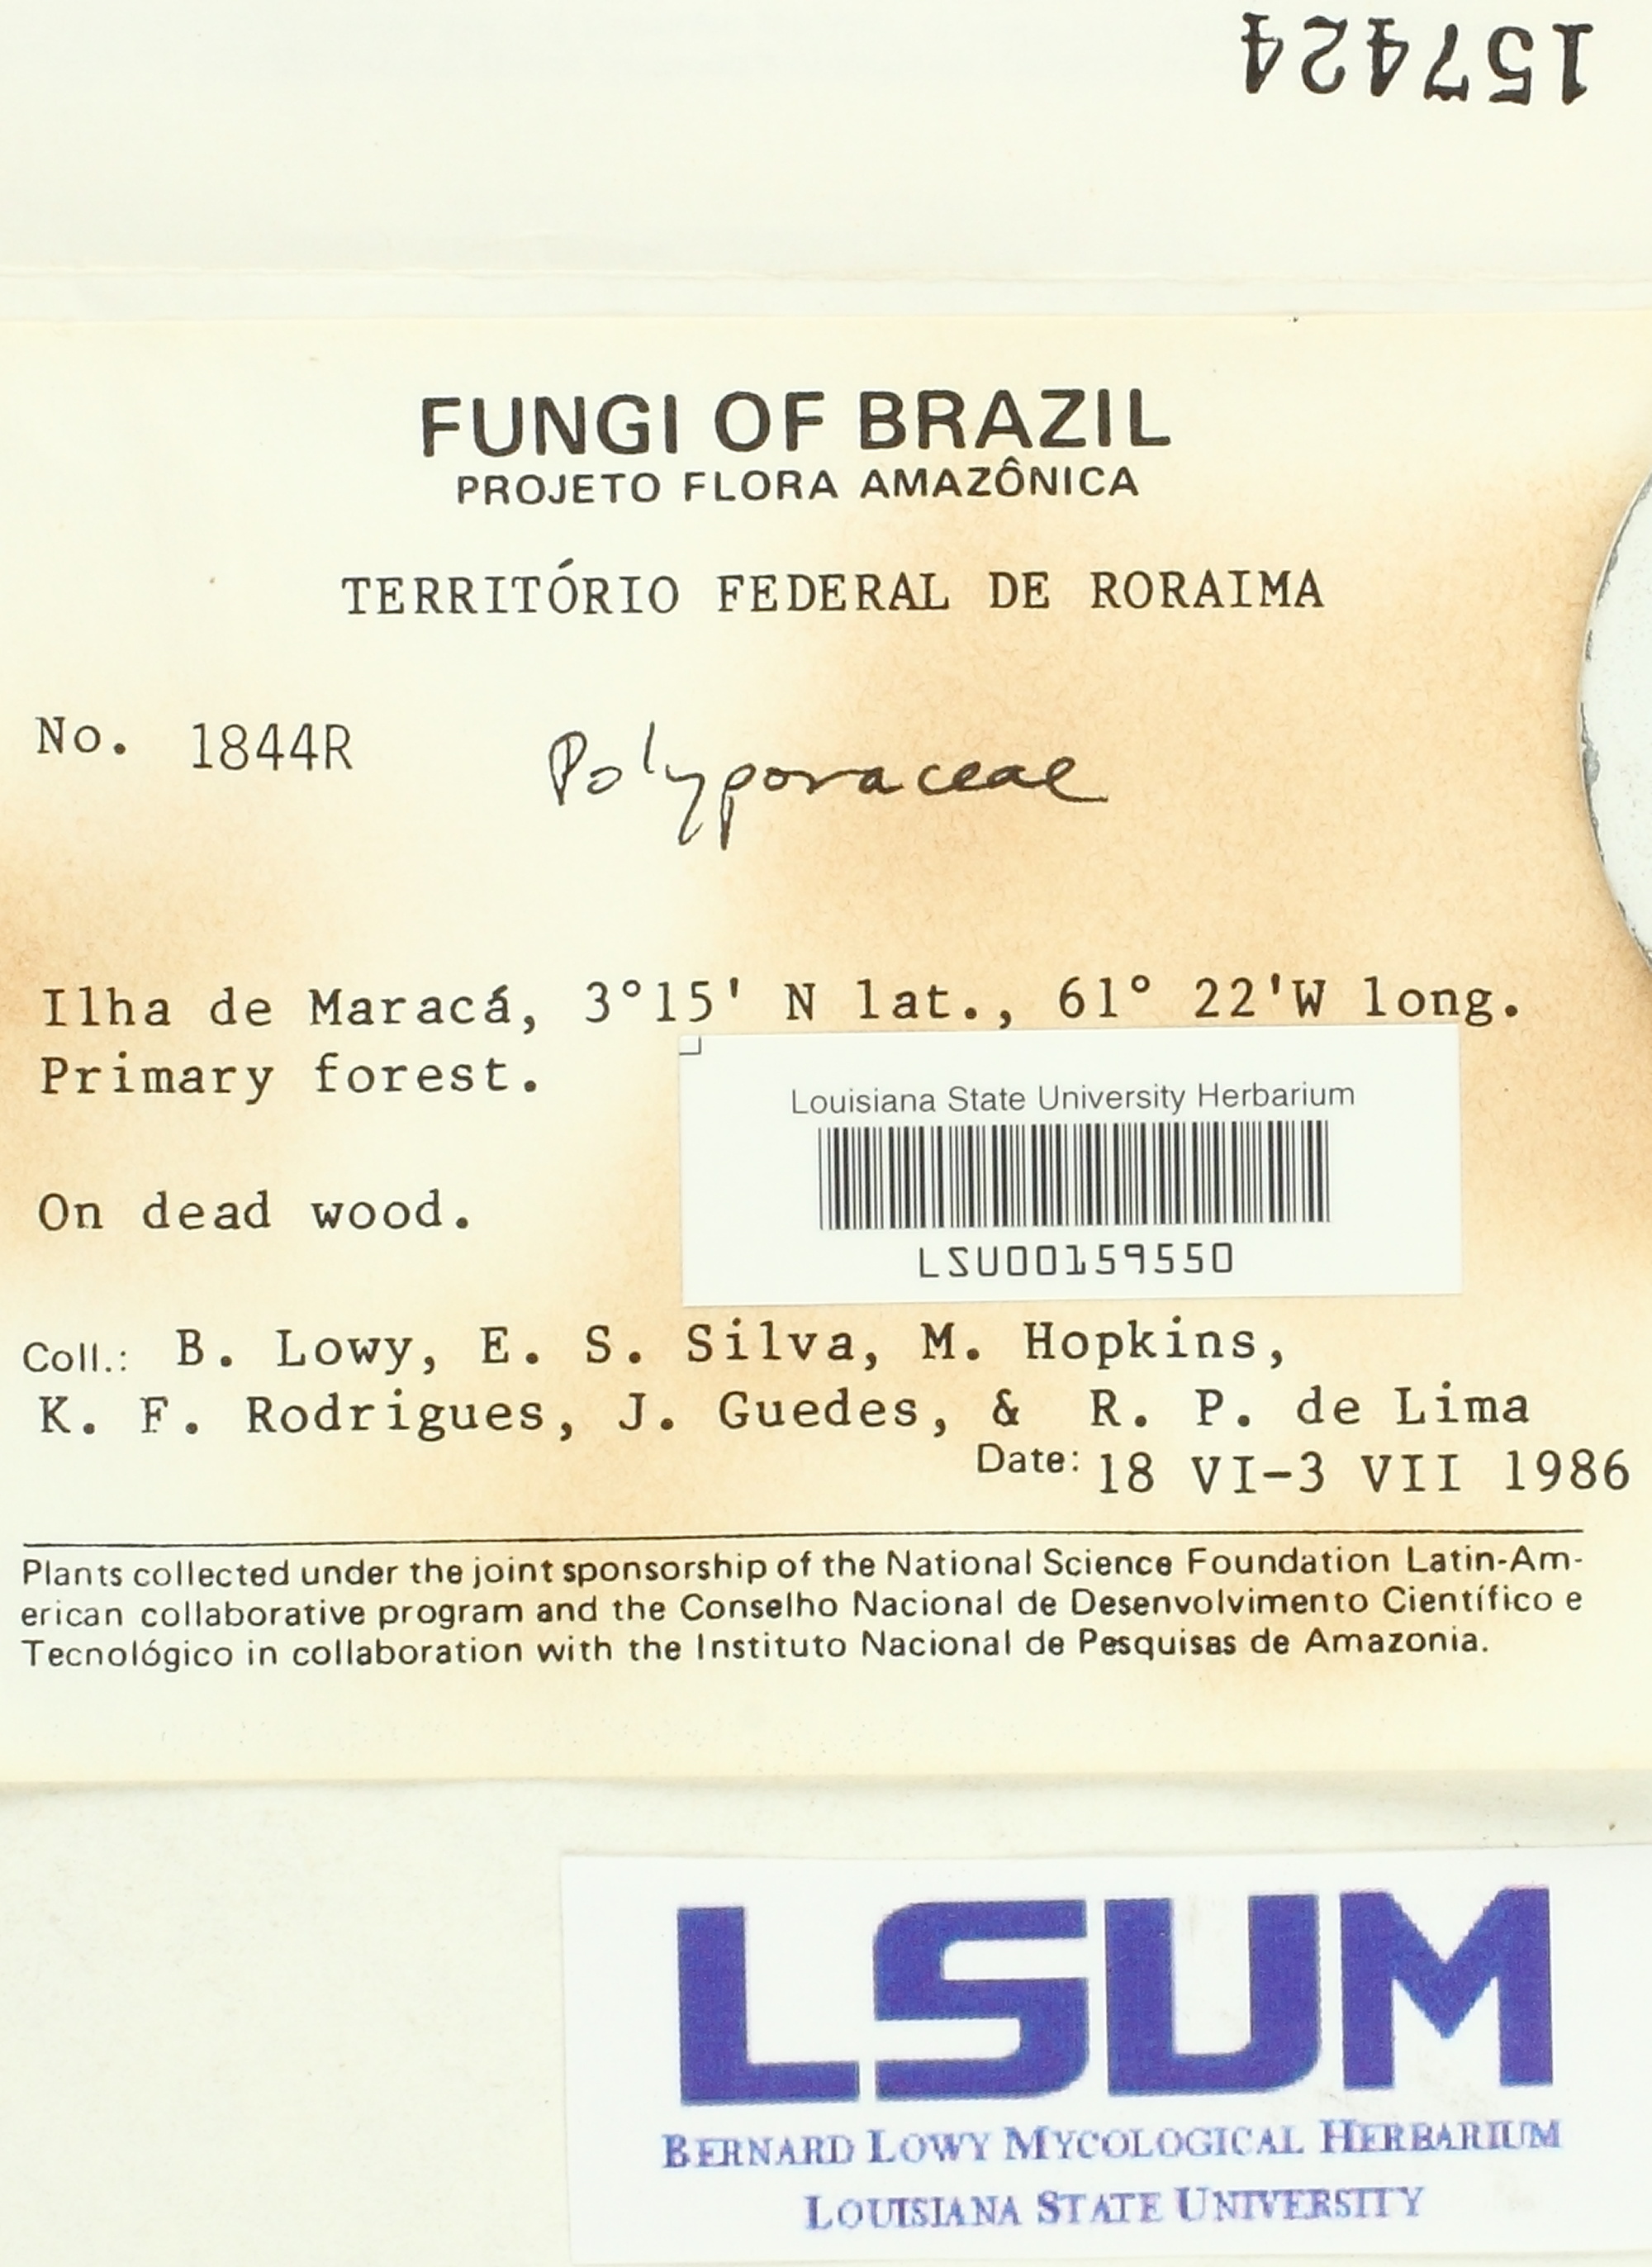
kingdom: Fungi
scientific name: Fungi
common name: Fungi
